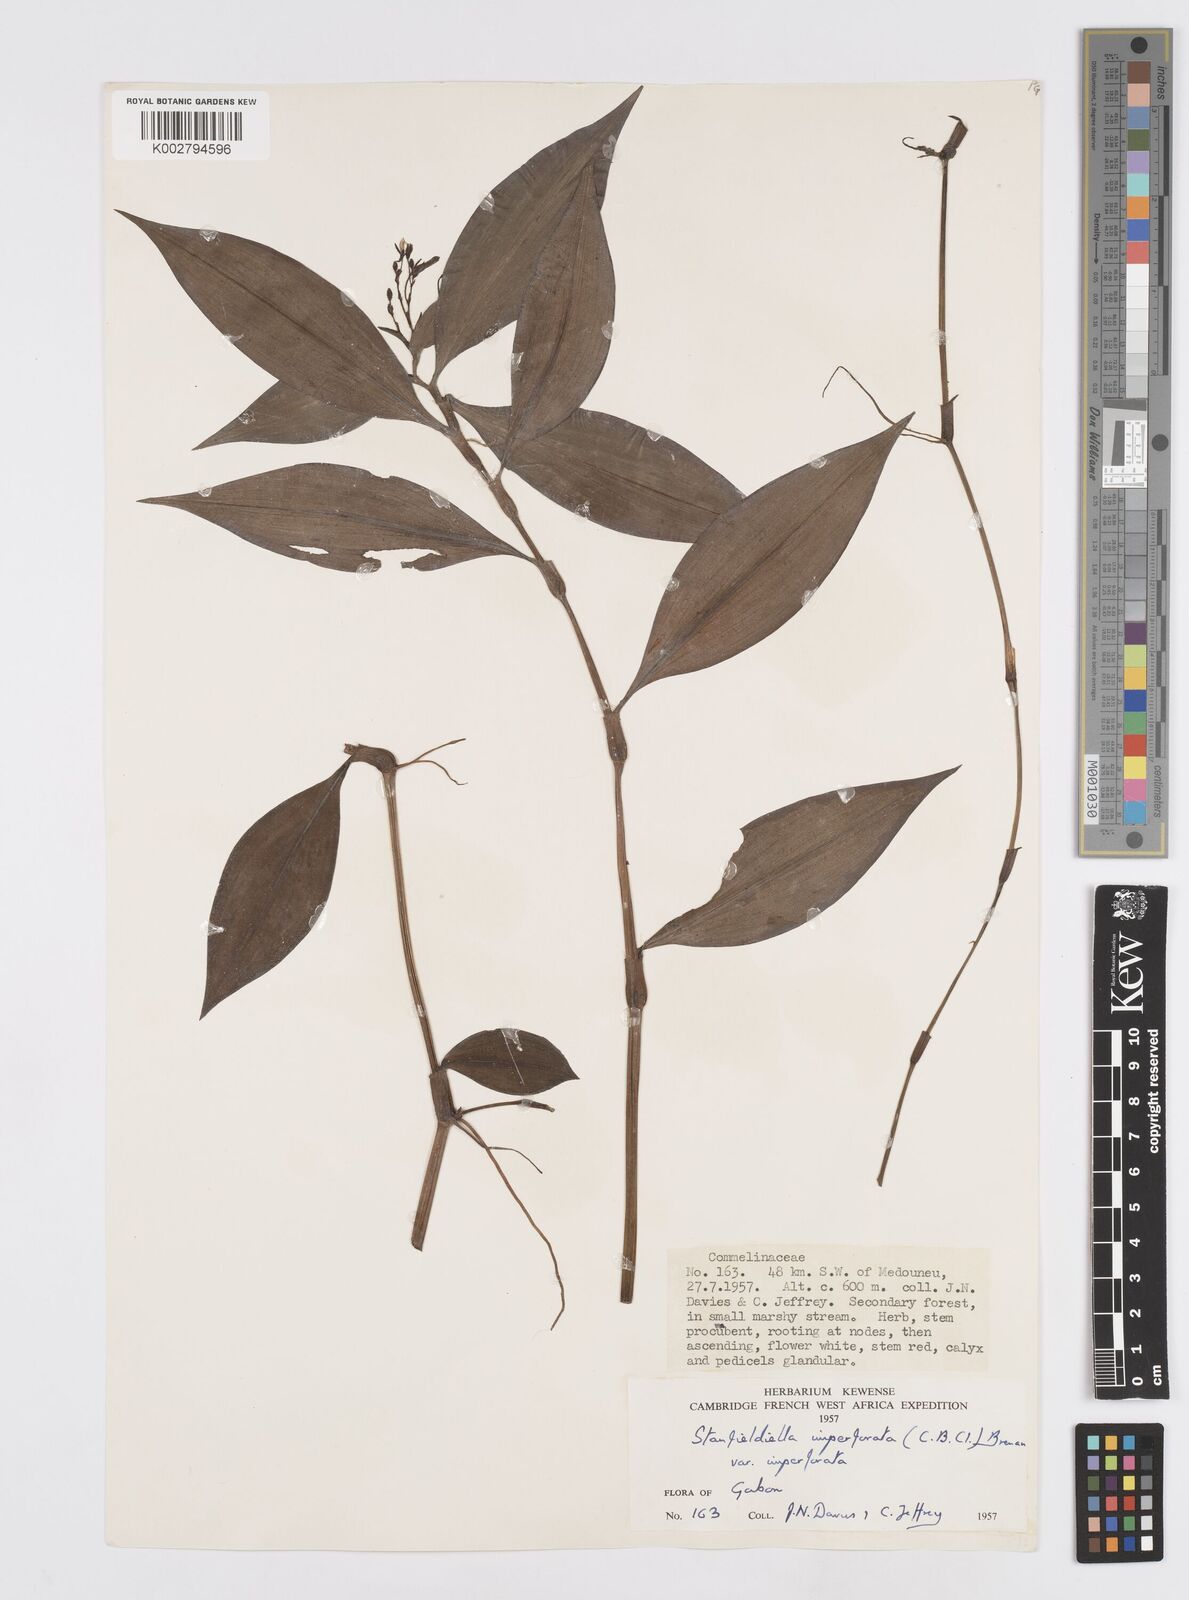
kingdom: Plantae
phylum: Tracheophyta
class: Liliopsida
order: Commelinales
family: Commelinaceae
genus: Stanfieldiella
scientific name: Stanfieldiella imperforata
